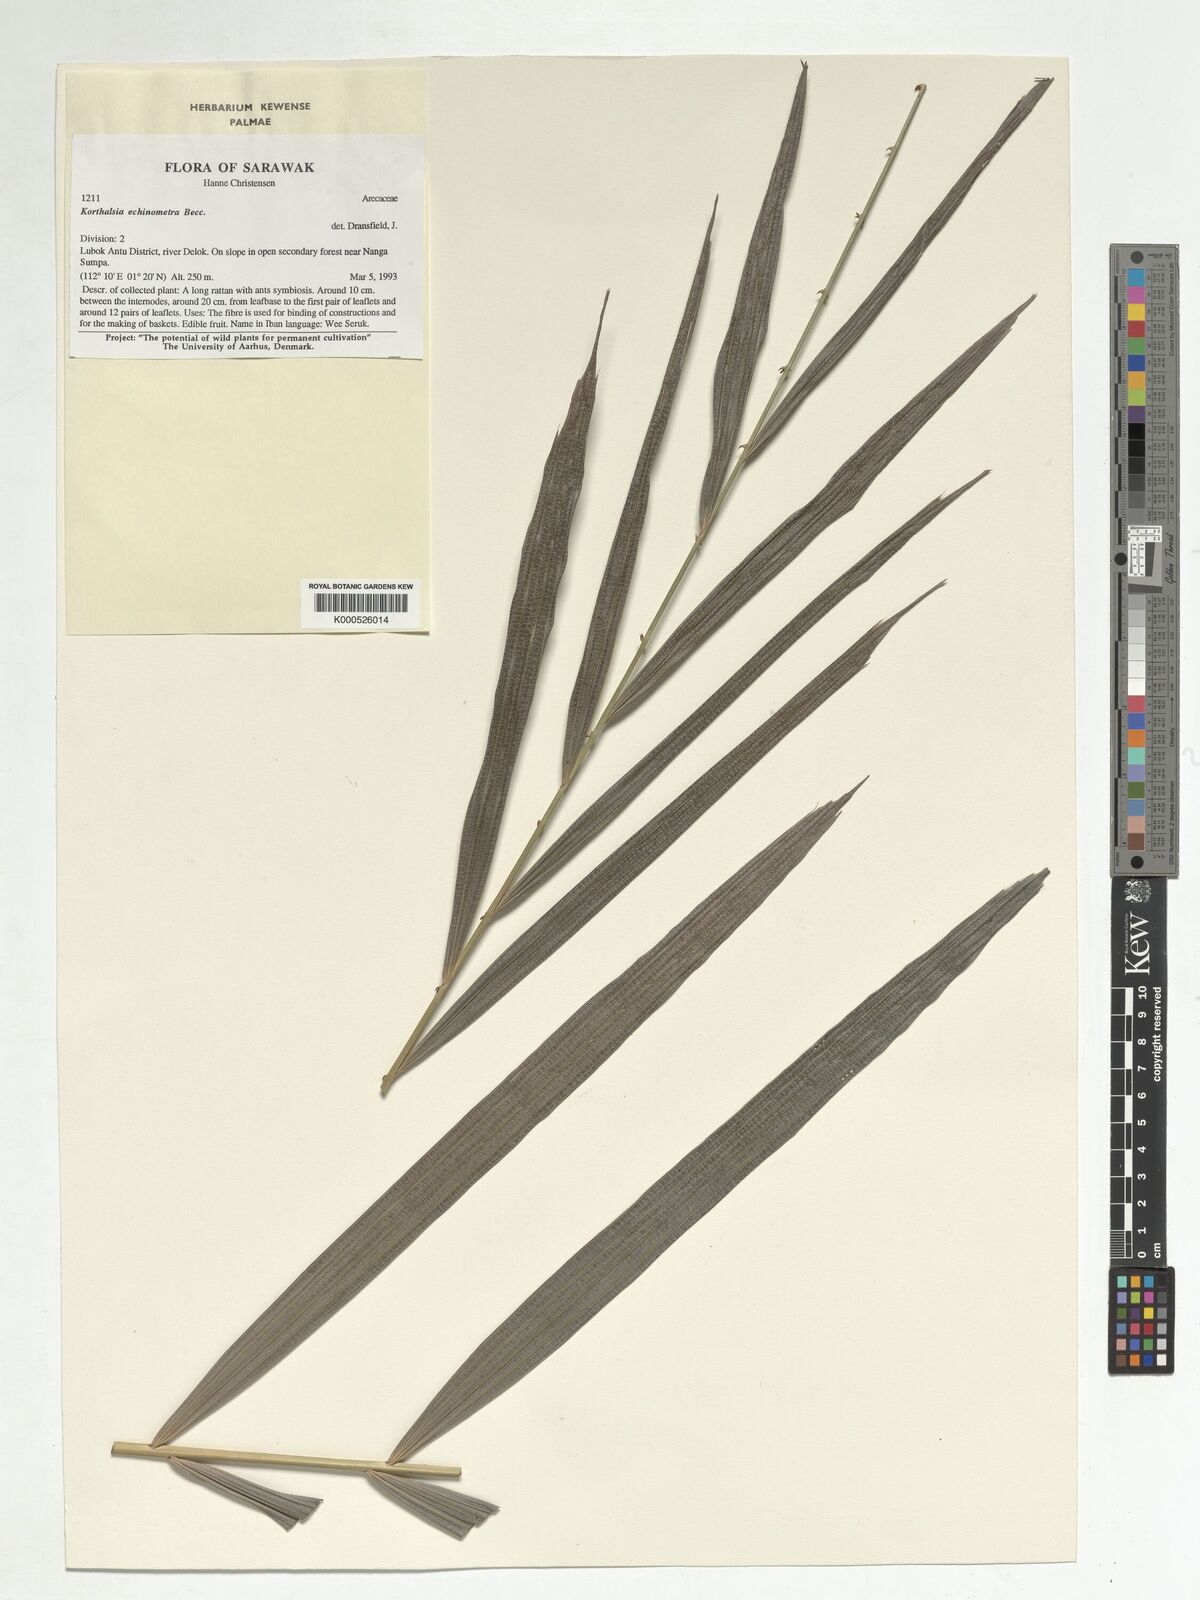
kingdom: Plantae
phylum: Tracheophyta
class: Liliopsida
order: Arecales
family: Arecaceae
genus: Korthalsia
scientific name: Korthalsia echinometra
